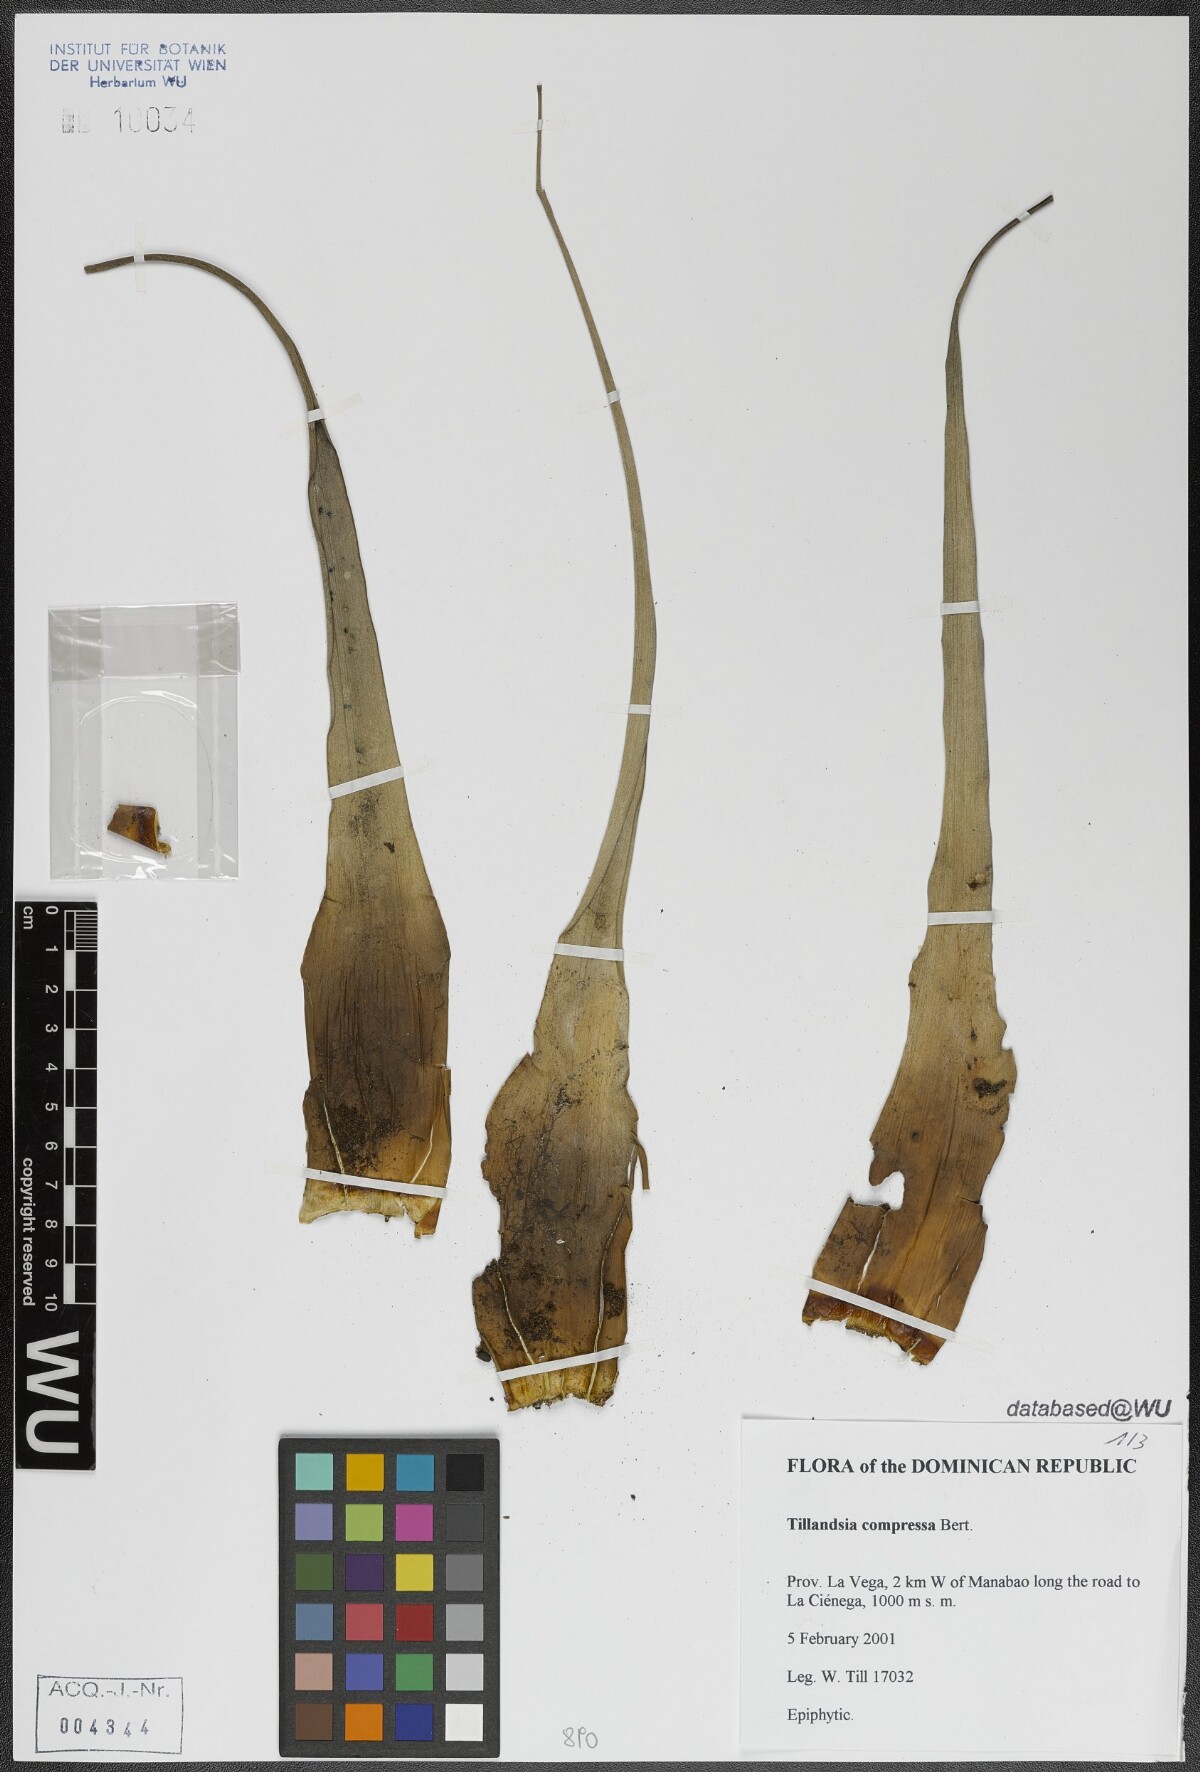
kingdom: Plantae
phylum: Tracheophyta
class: Liliopsida
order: Poales
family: Bromeliaceae
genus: Tillandsia
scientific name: Tillandsia compressa
